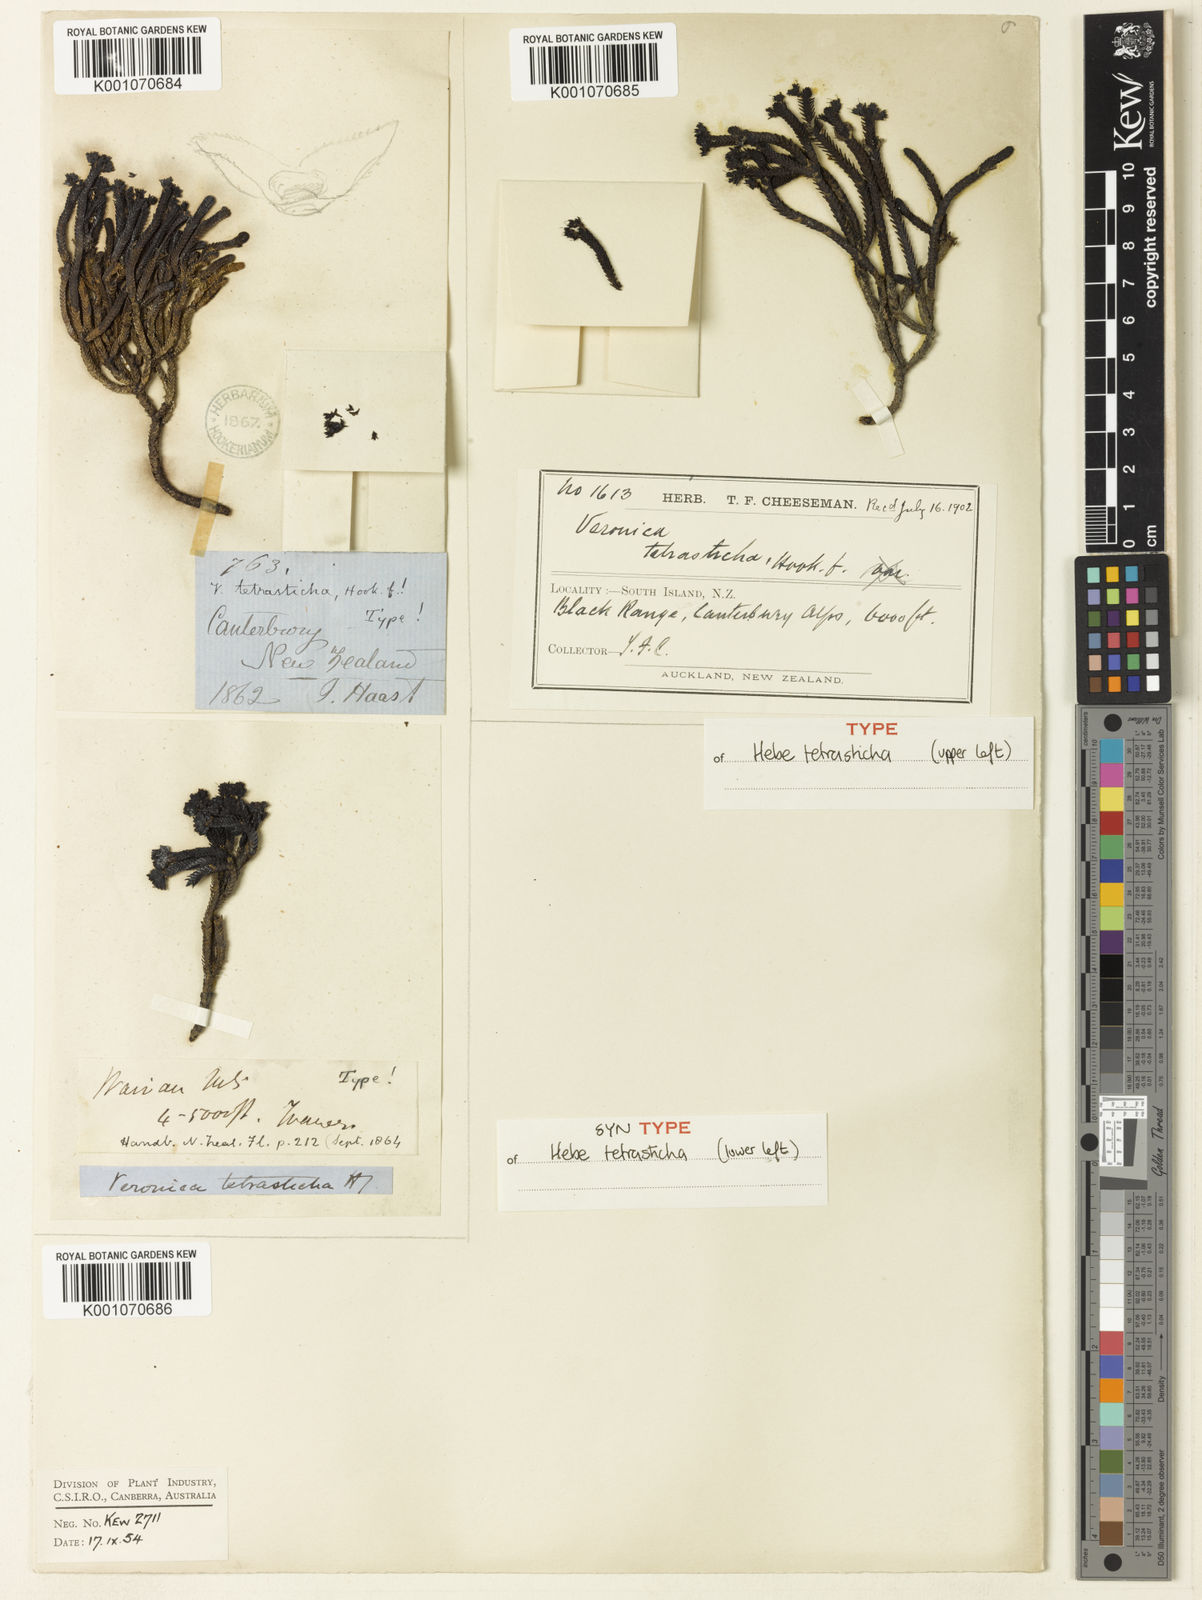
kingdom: Plantae
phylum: Tracheophyta
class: Magnoliopsida
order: Lamiales
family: Plantaginaceae
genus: Veronica
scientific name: Veronica
